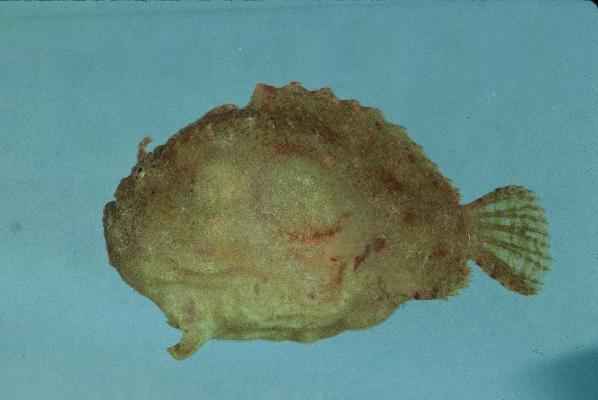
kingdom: Animalia
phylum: Chordata
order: Lophiiformes
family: Antennariidae
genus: Antennatus
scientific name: Antennatus coccineus
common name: Scarlet frogfish
